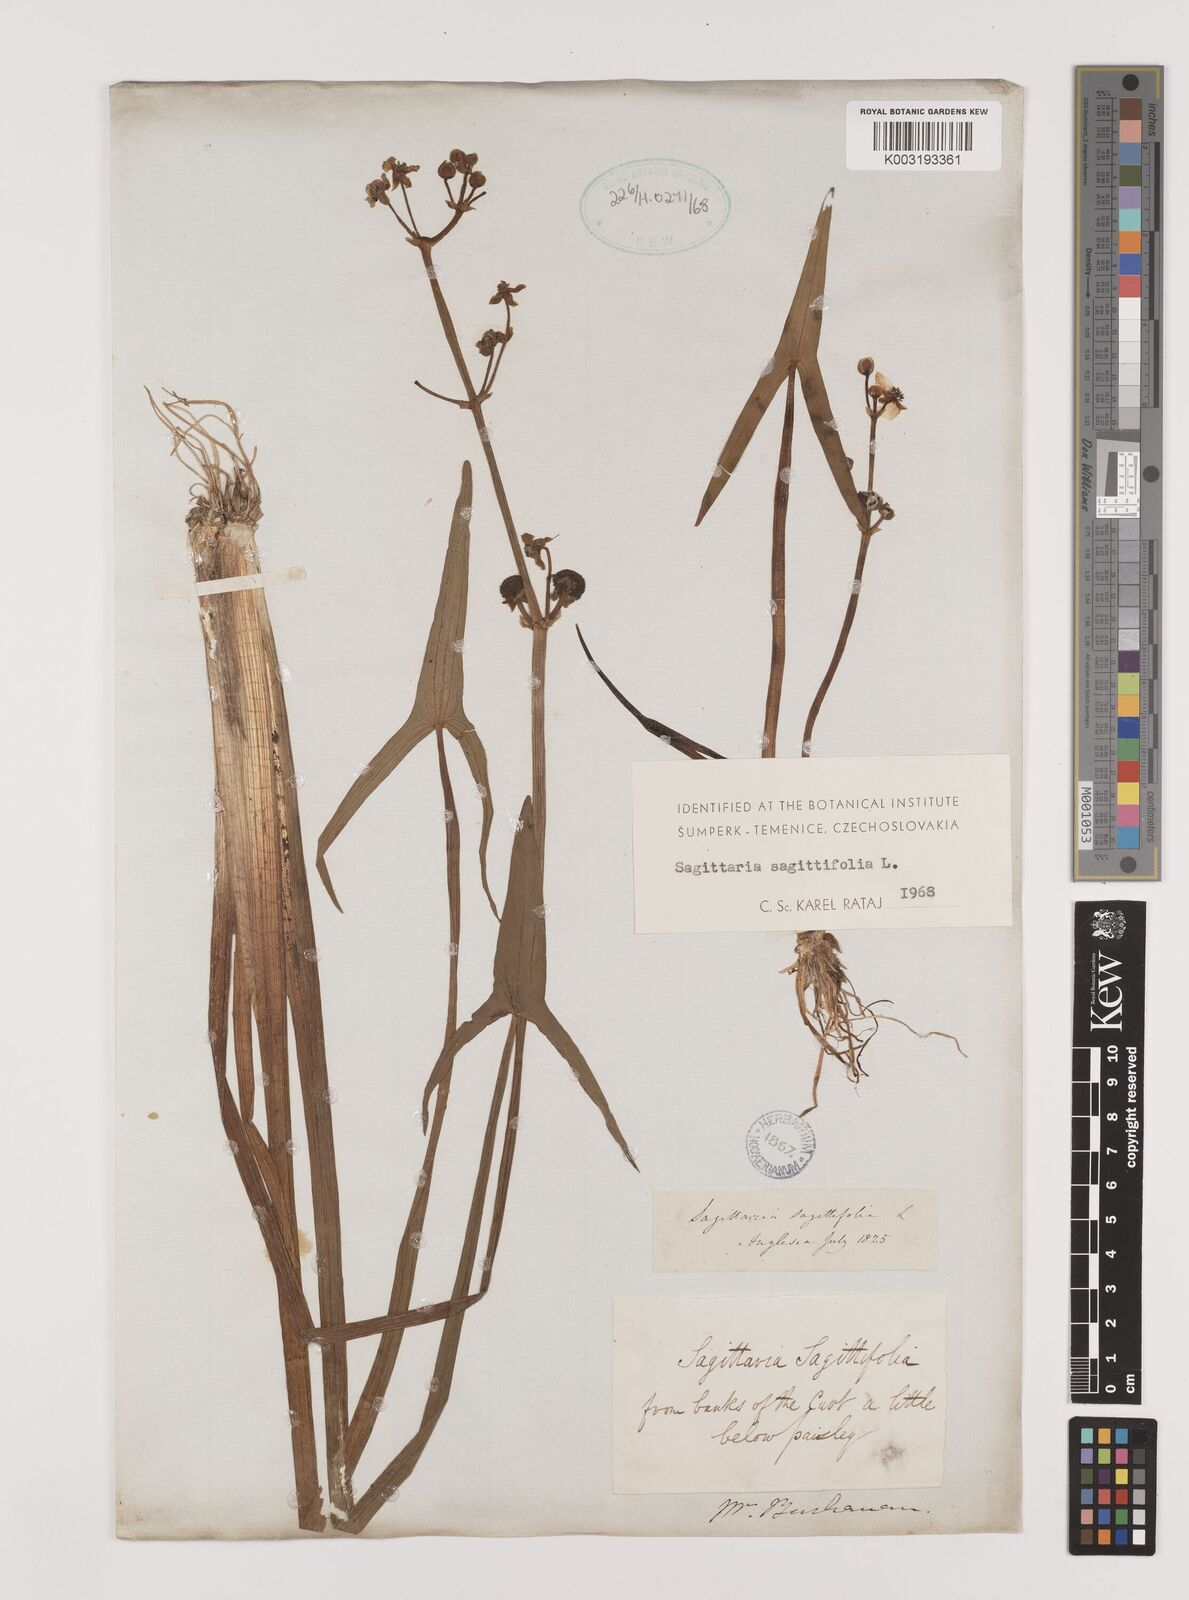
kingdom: Plantae
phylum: Tracheophyta
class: Liliopsida
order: Alismatales
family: Alismataceae
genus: Sagittaria
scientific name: Sagittaria sagittifolia
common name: Arrowhead
